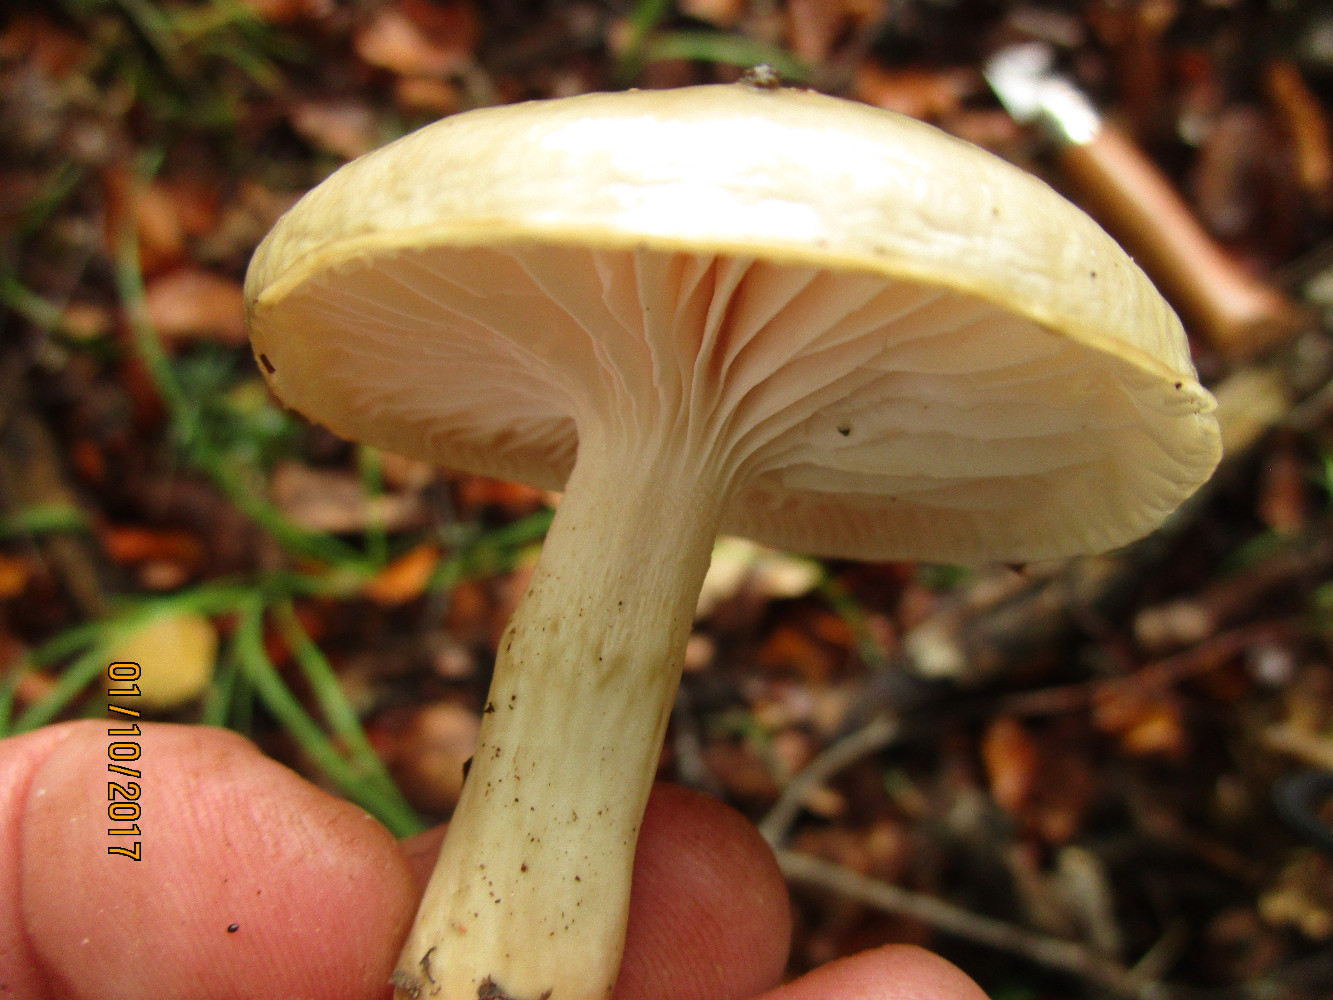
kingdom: Fungi
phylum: Basidiomycota
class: Agaricomycetes
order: Agaricales
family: Hygrophoraceae
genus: Hygrophorus
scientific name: Hygrophorus mesotephrus
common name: askegrå sneglehat
